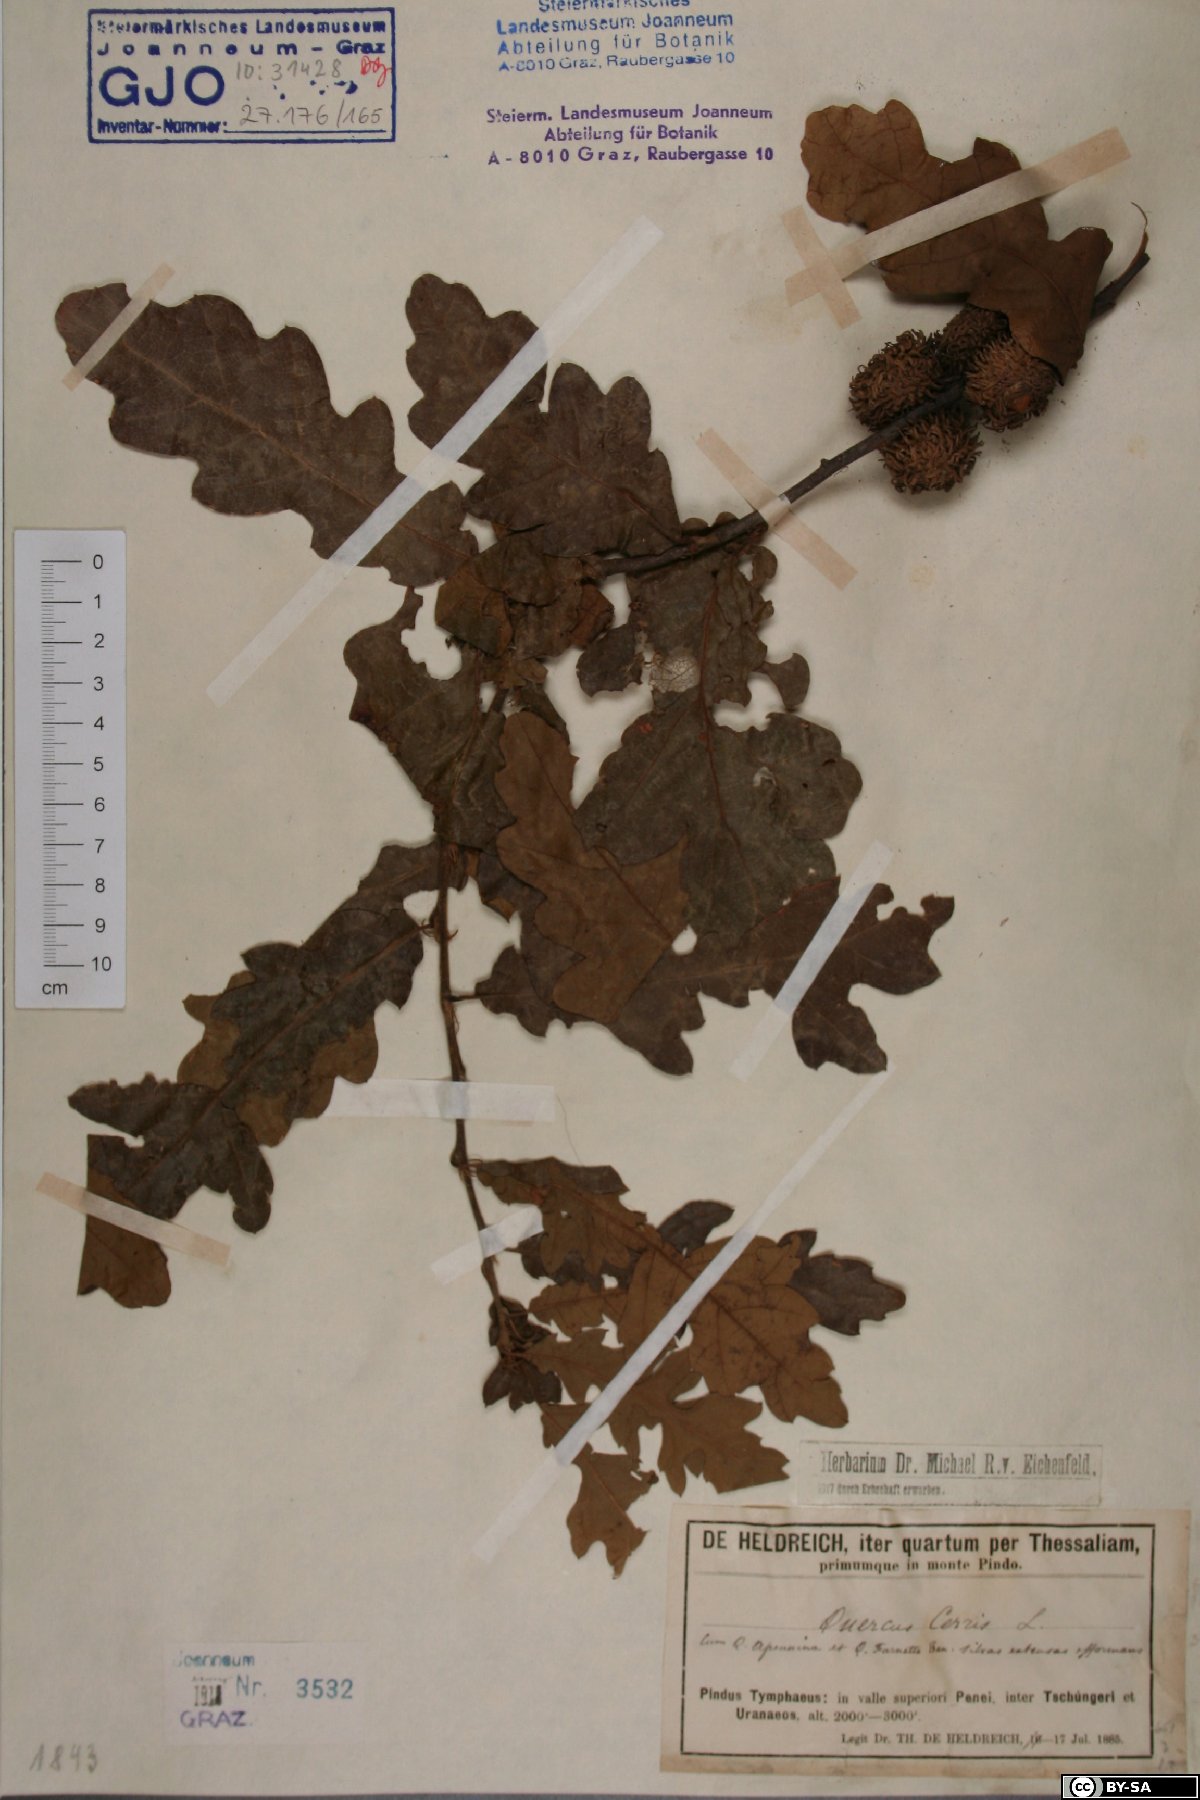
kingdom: Plantae
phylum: Tracheophyta
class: Magnoliopsida
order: Fagales
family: Fagaceae
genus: Quercus
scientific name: Quercus cerris
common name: Turkey oak
